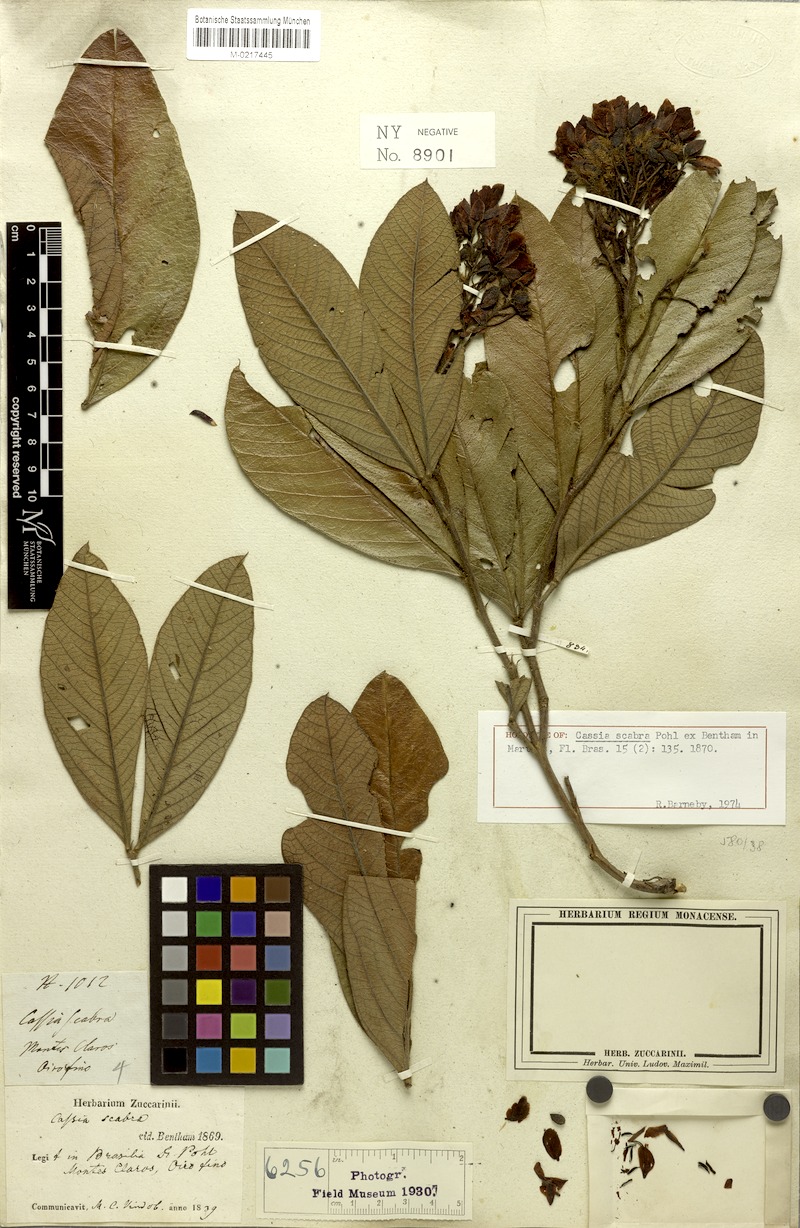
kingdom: Plantae
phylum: Tracheophyta
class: Magnoliopsida
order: Fabales
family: Fabaceae
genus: Chamaecrista
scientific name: Chamaecrista scabra
